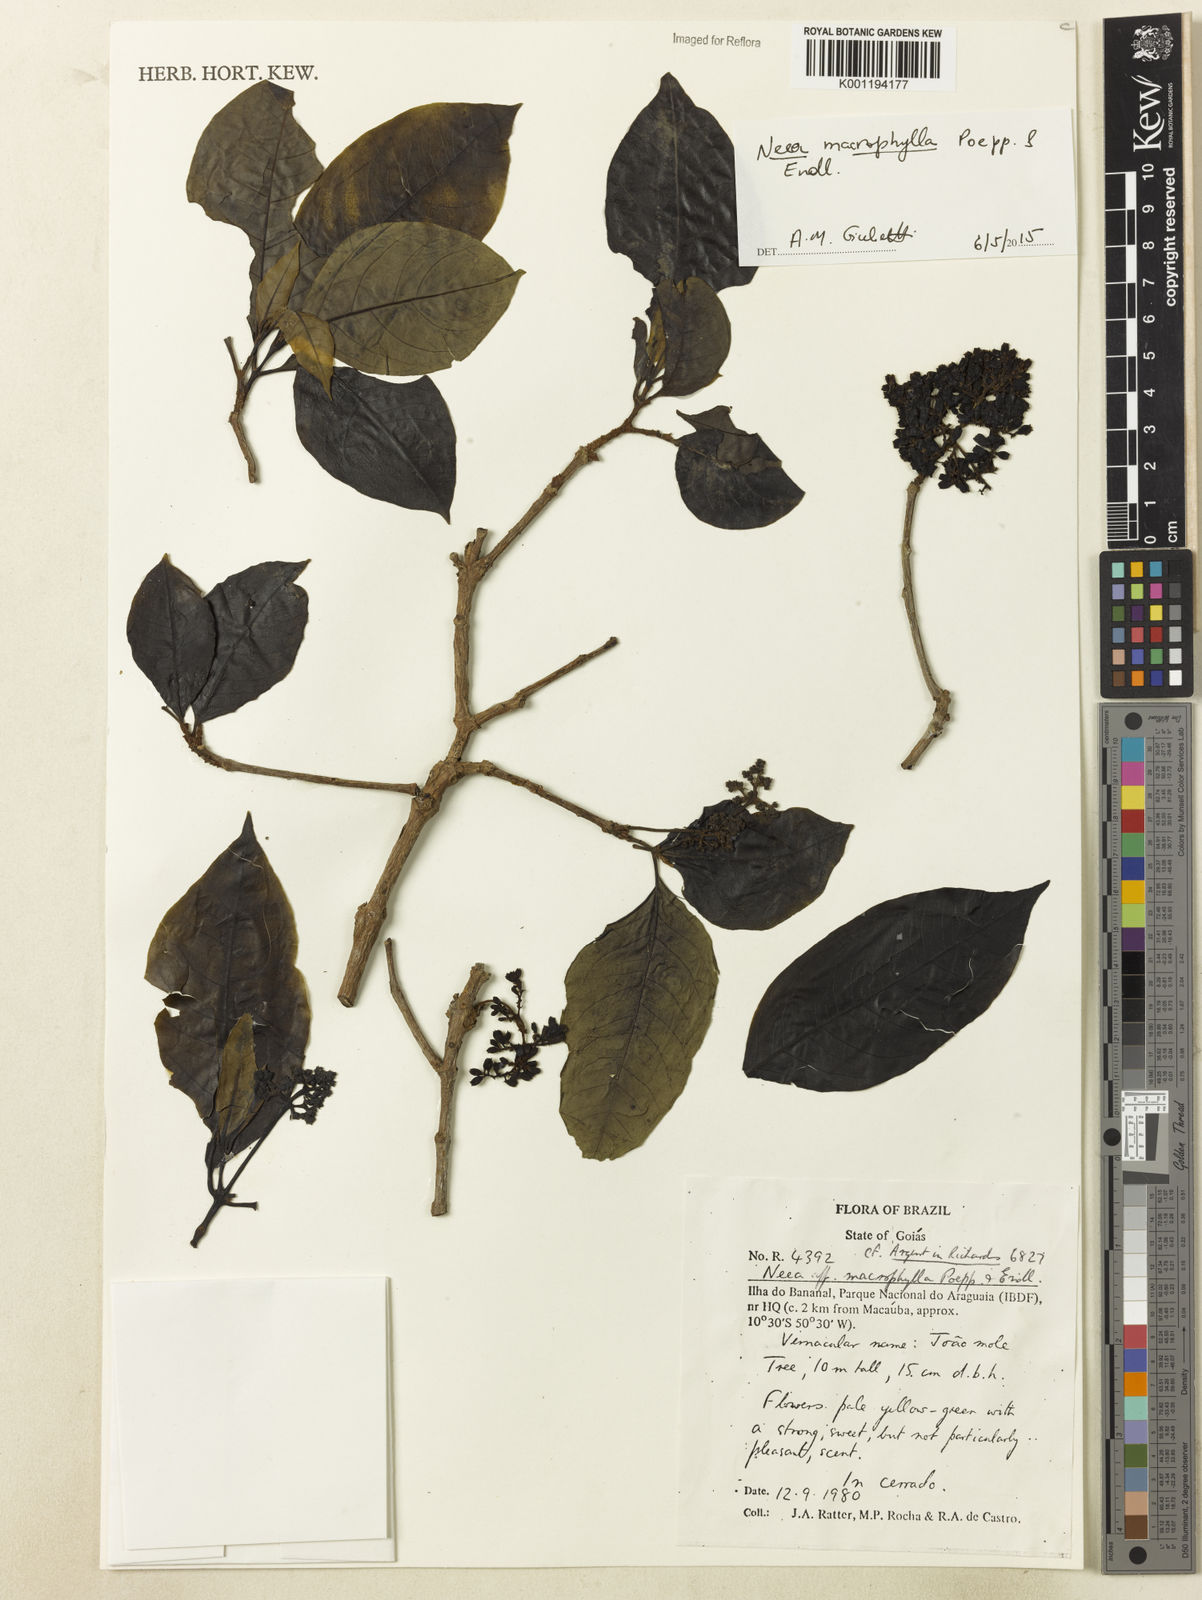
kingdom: Plantae
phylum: Tracheophyta
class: Magnoliopsida
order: Caryophyllales
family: Nyctaginaceae
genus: Neea
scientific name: Neea macrophylla
